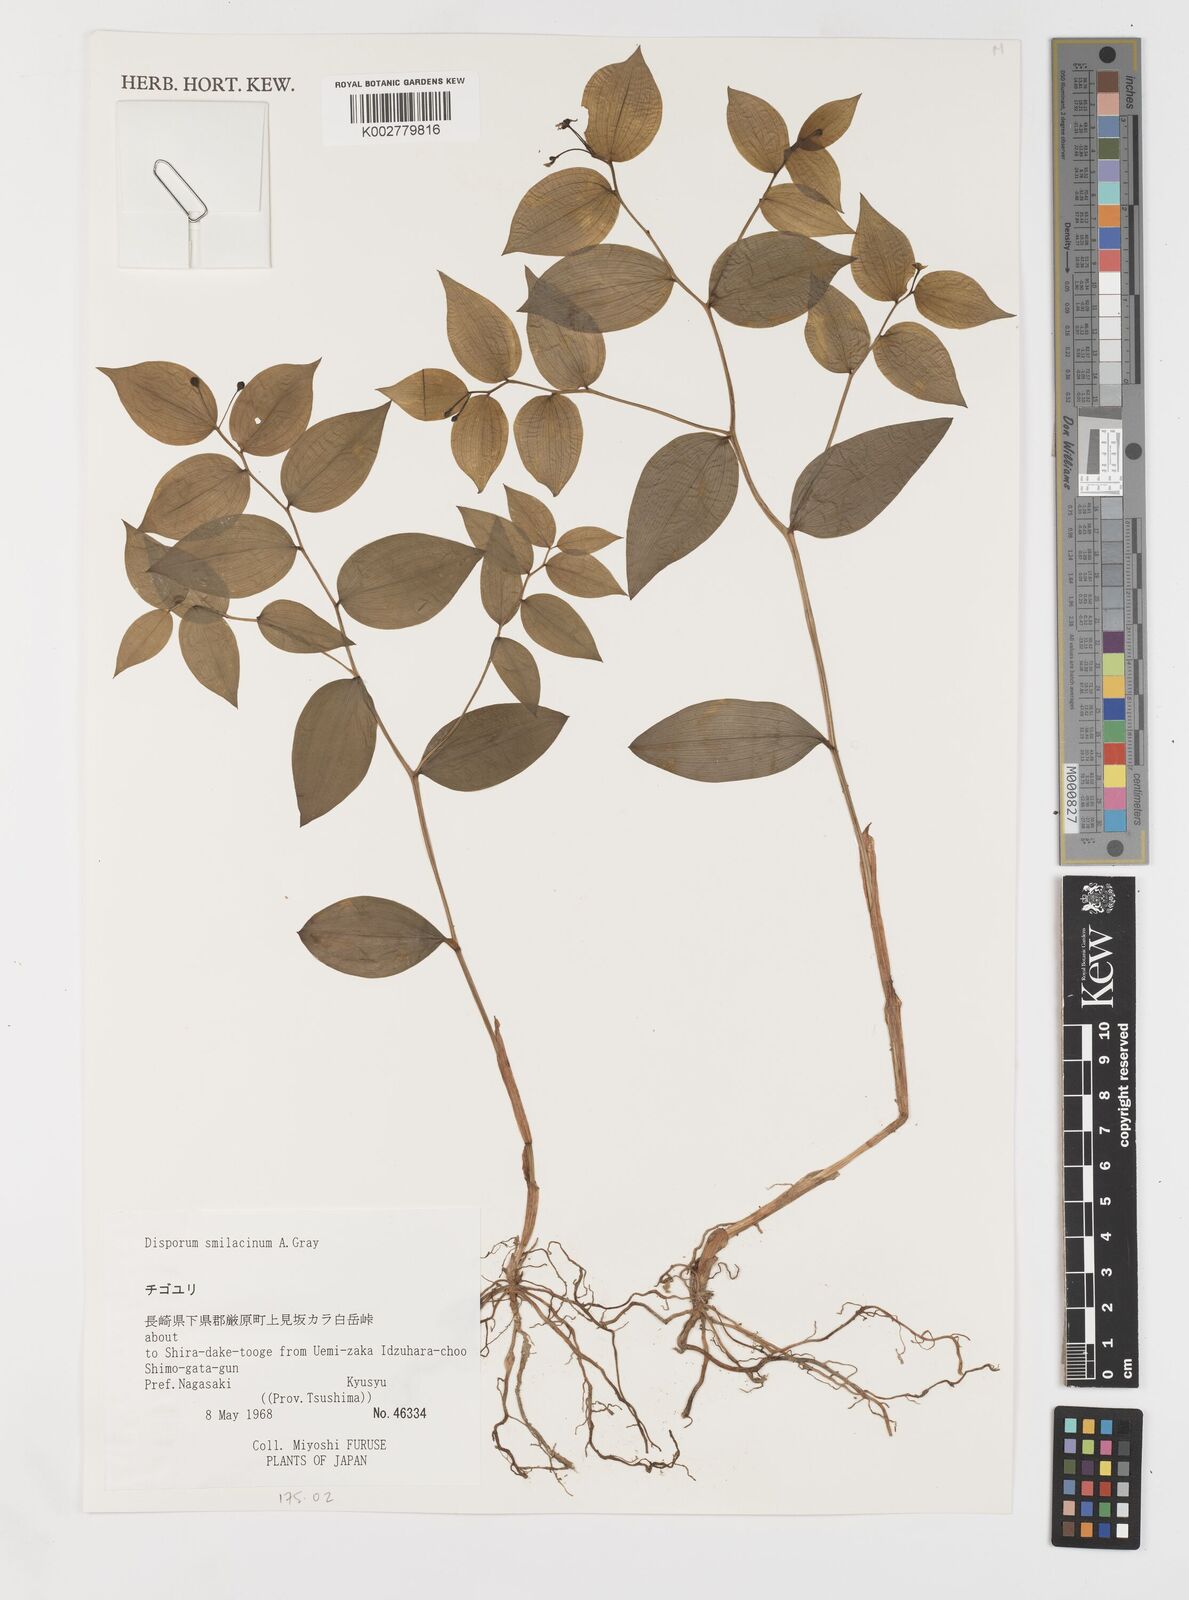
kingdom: Plantae
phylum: Tracheophyta
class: Liliopsida
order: Liliales
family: Colchicaceae
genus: Disporum
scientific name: Disporum smilacinum
